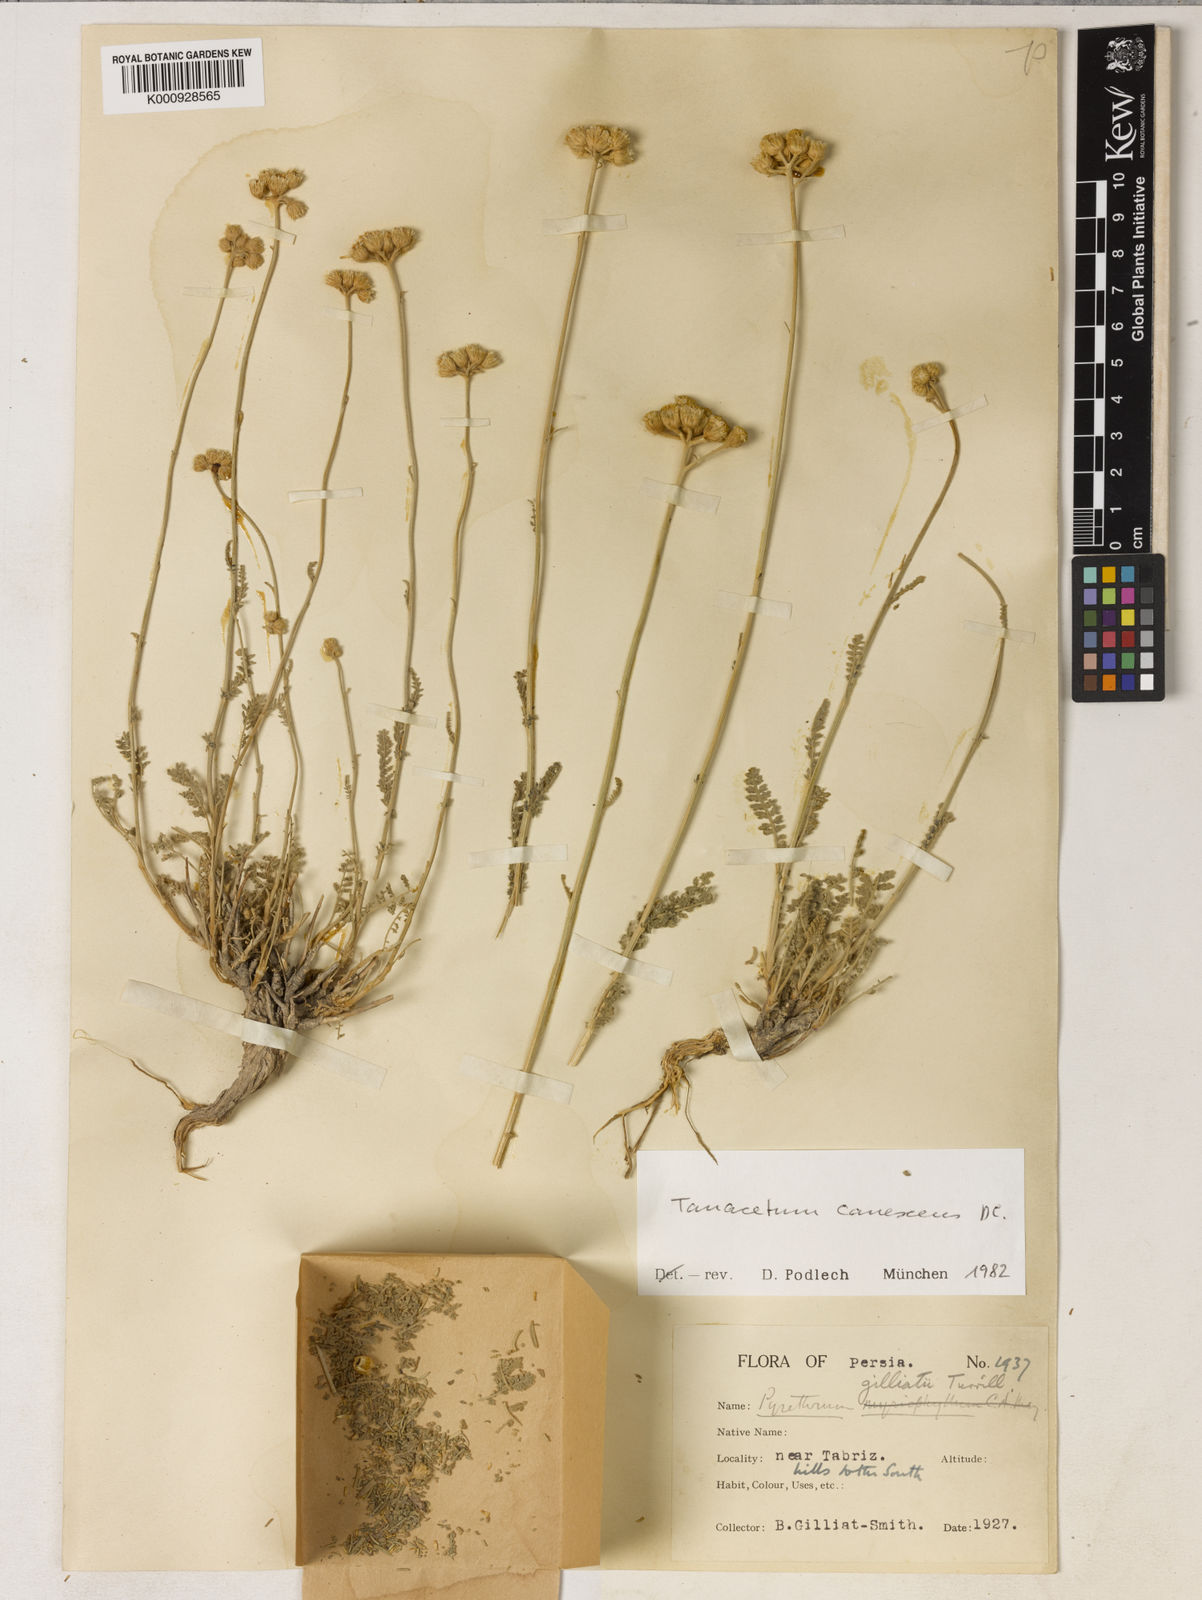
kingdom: Plantae
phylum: Tracheophyta
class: Magnoliopsida
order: Asterales
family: Asteraceae
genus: Tanacetum
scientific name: Tanacetum canescens
